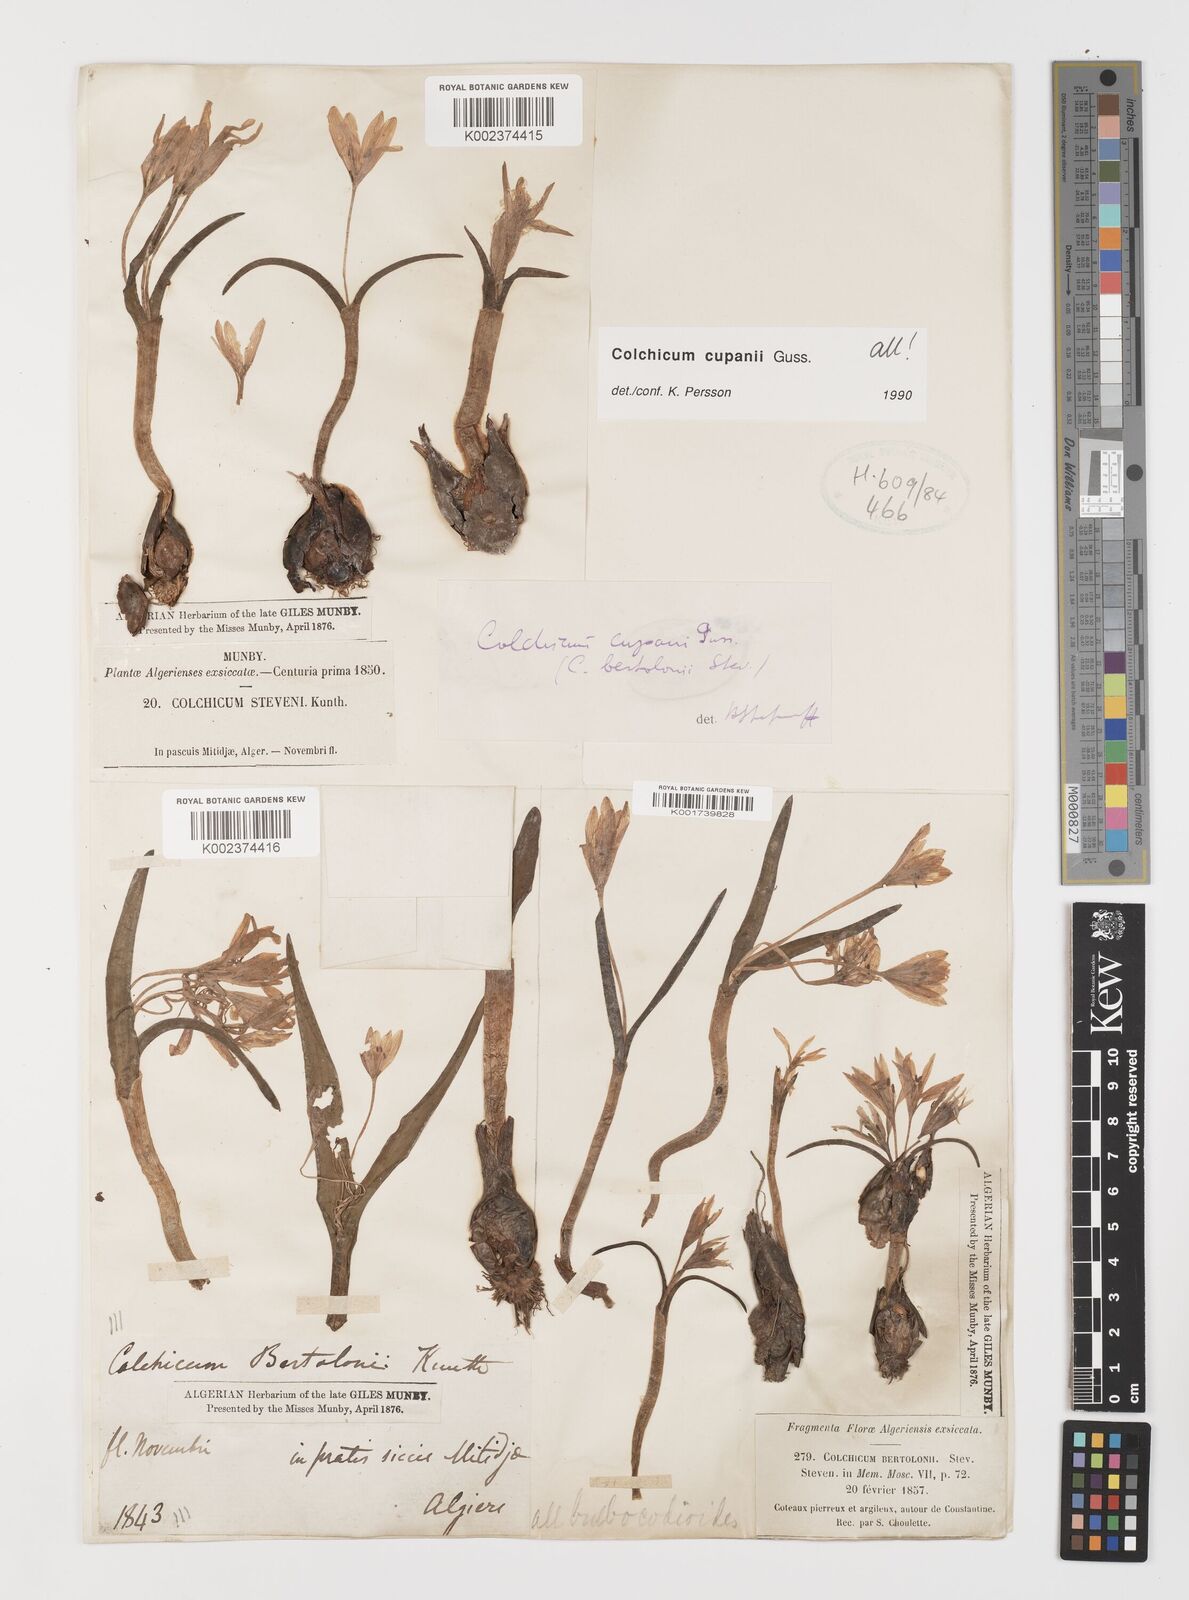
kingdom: Plantae
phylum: Tracheophyta
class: Liliopsida
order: Liliales
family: Colchicaceae
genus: Colchicum
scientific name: Colchicum cupanii
